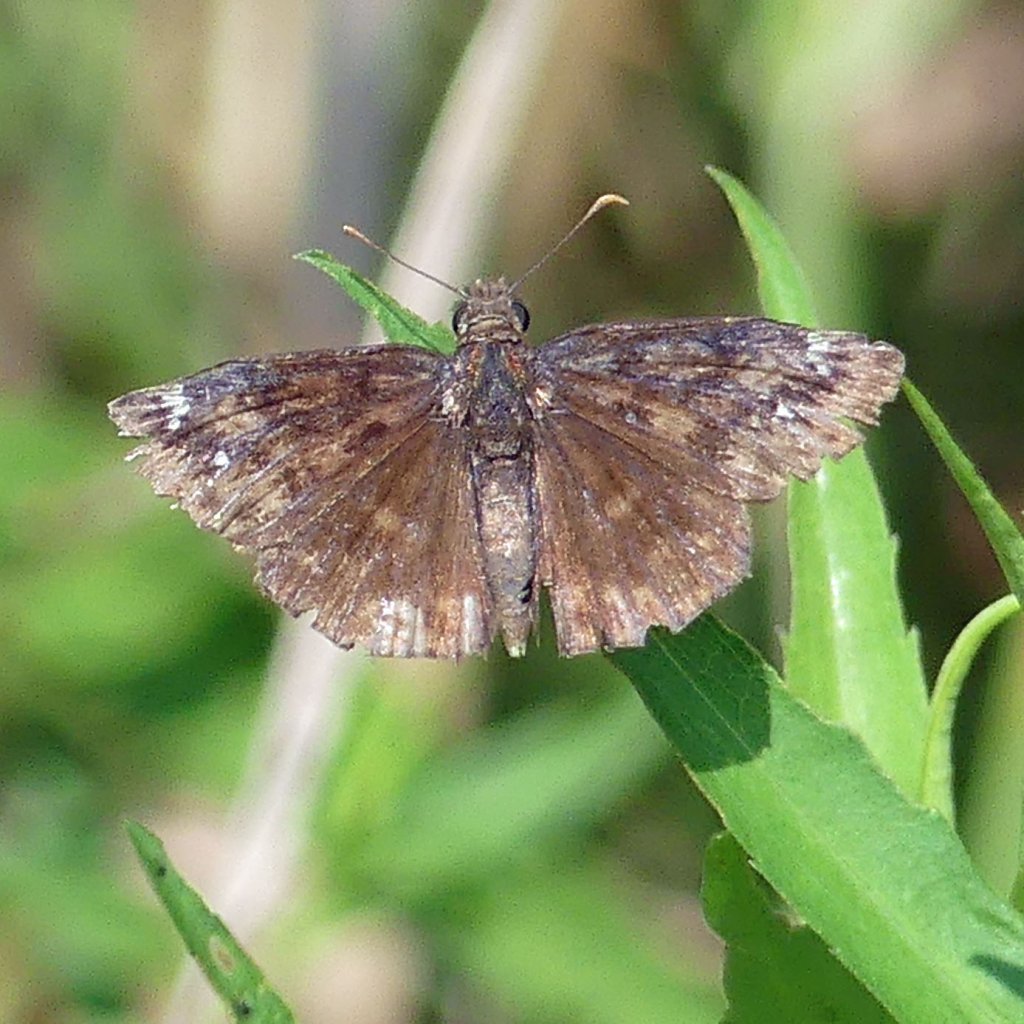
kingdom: Animalia
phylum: Arthropoda
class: Insecta
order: Lepidoptera
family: Hesperiidae
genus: Gesta
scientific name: Gesta
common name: Wild Indigo Duskywing
